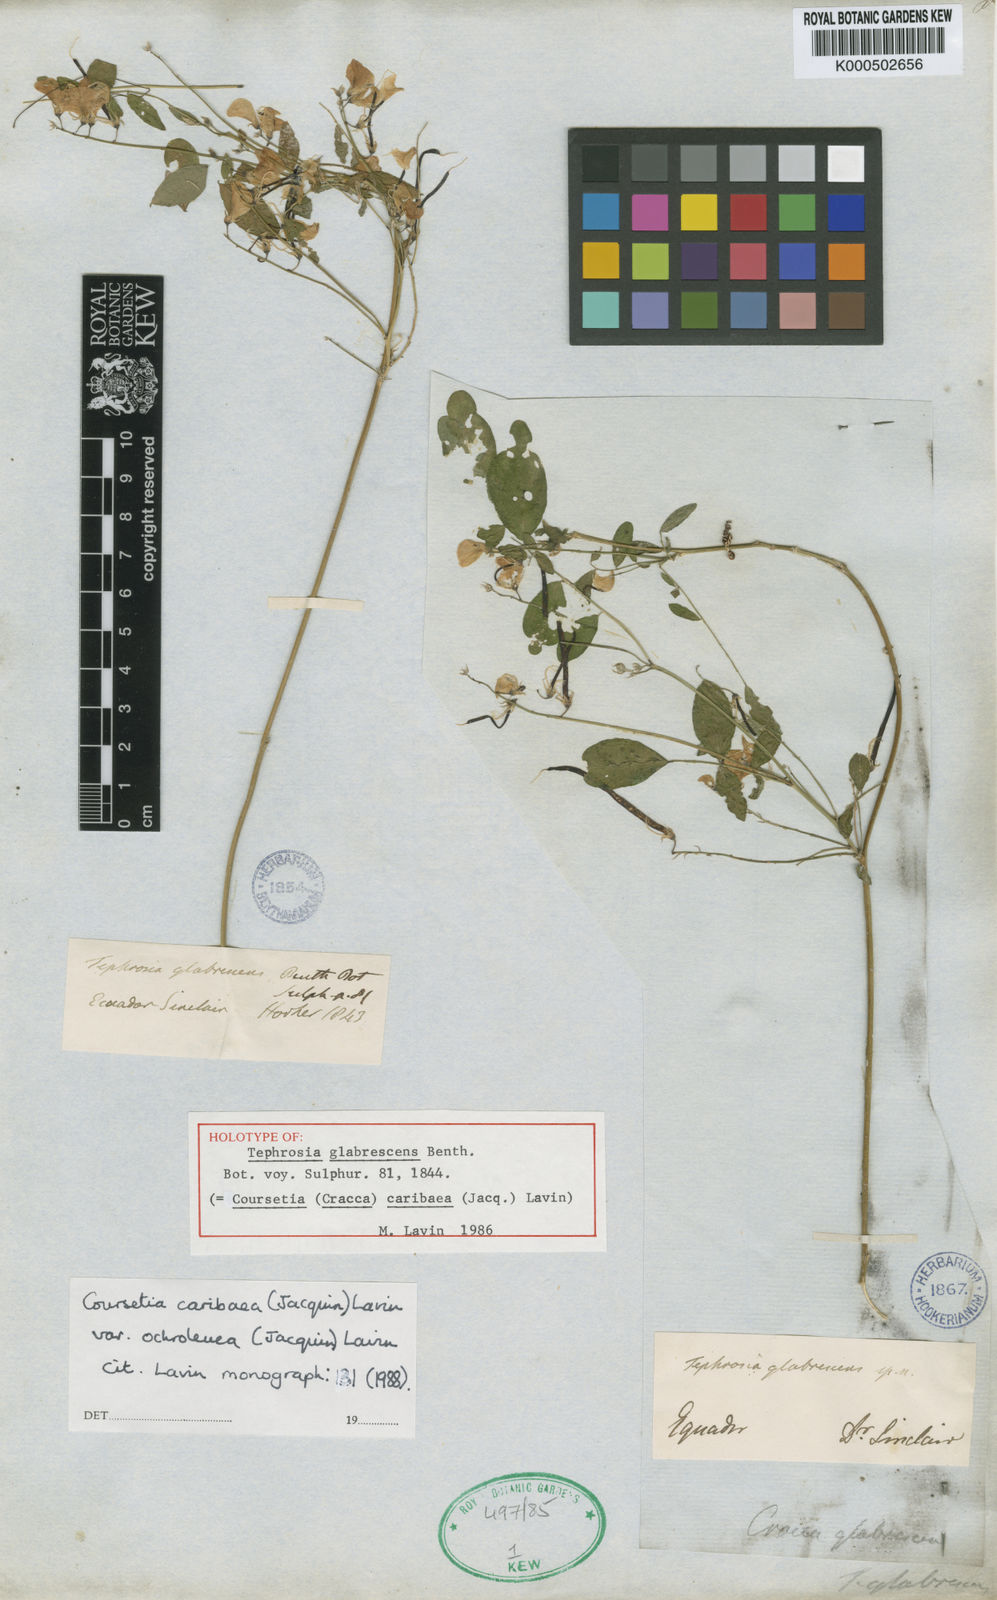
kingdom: Plantae
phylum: Tracheophyta
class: Magnoliopsida
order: Fabales
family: Fabaceae
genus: Coursetia
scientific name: Coursetia caribaea
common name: Anil falso
